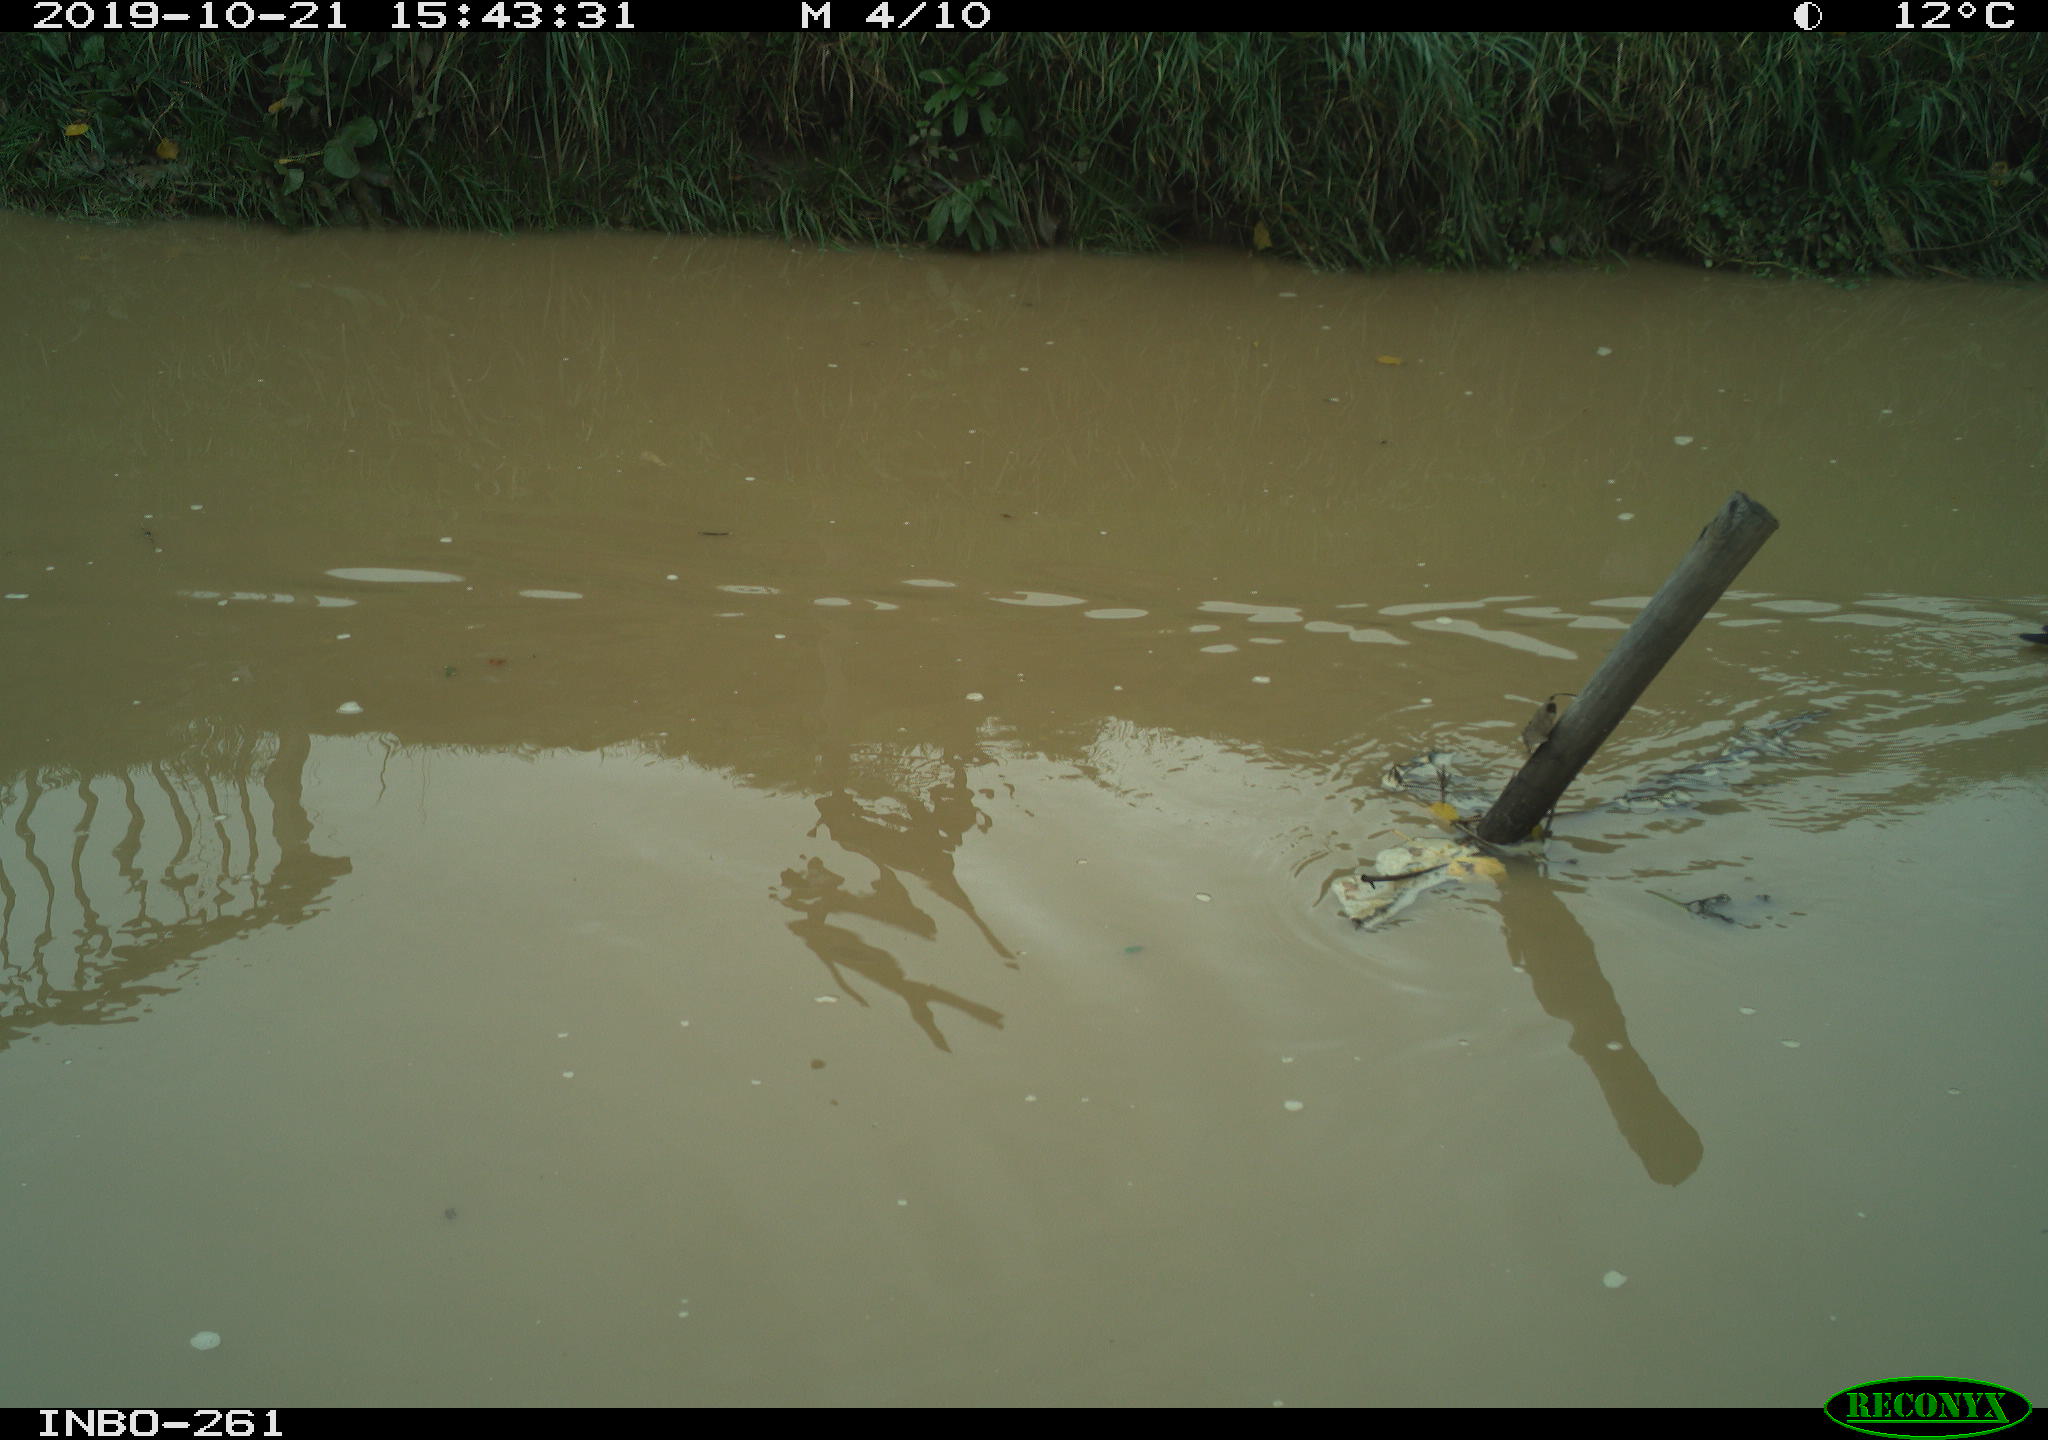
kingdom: Animalia
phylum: Chordata
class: Aves
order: Gruiformes
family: Rallidae
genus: Gallinula
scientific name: Gallinula chloropus
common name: Common moorhen
